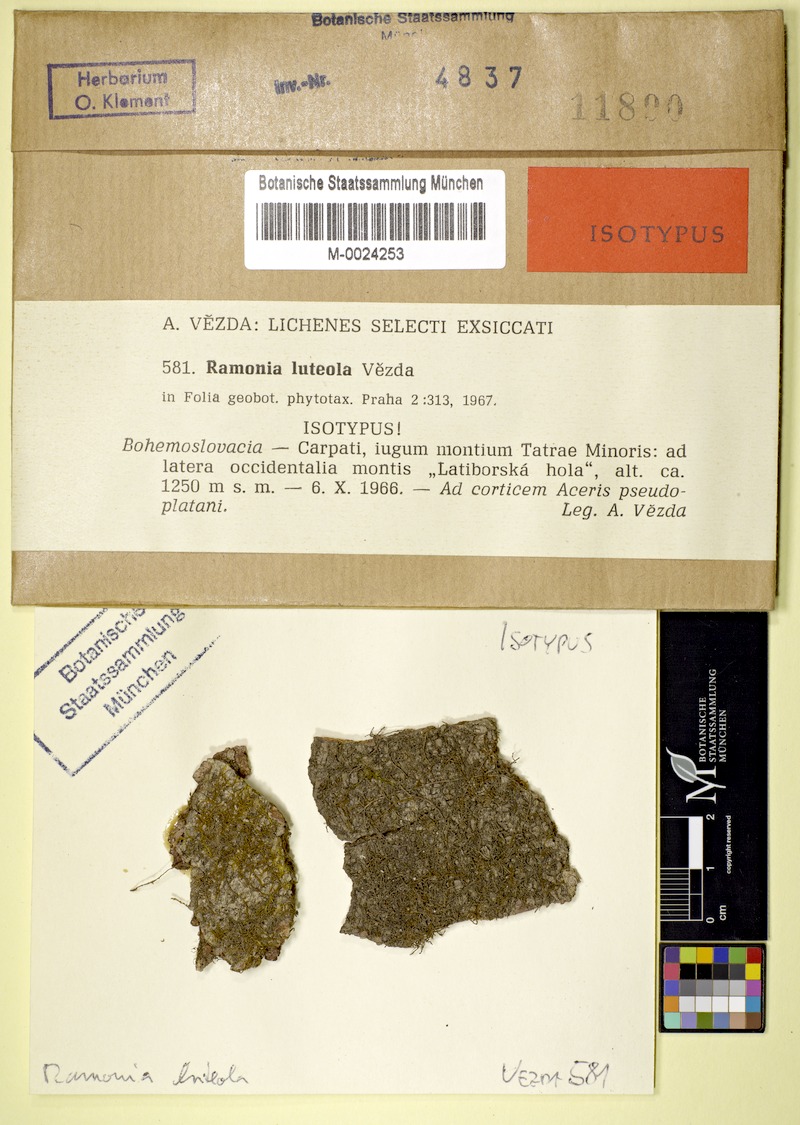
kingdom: Fungi
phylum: Ascomycota
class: Lecanoromycetes
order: Gyalectales
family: Gyalectaceae
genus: Ramonia
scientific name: Ramonia luteola
